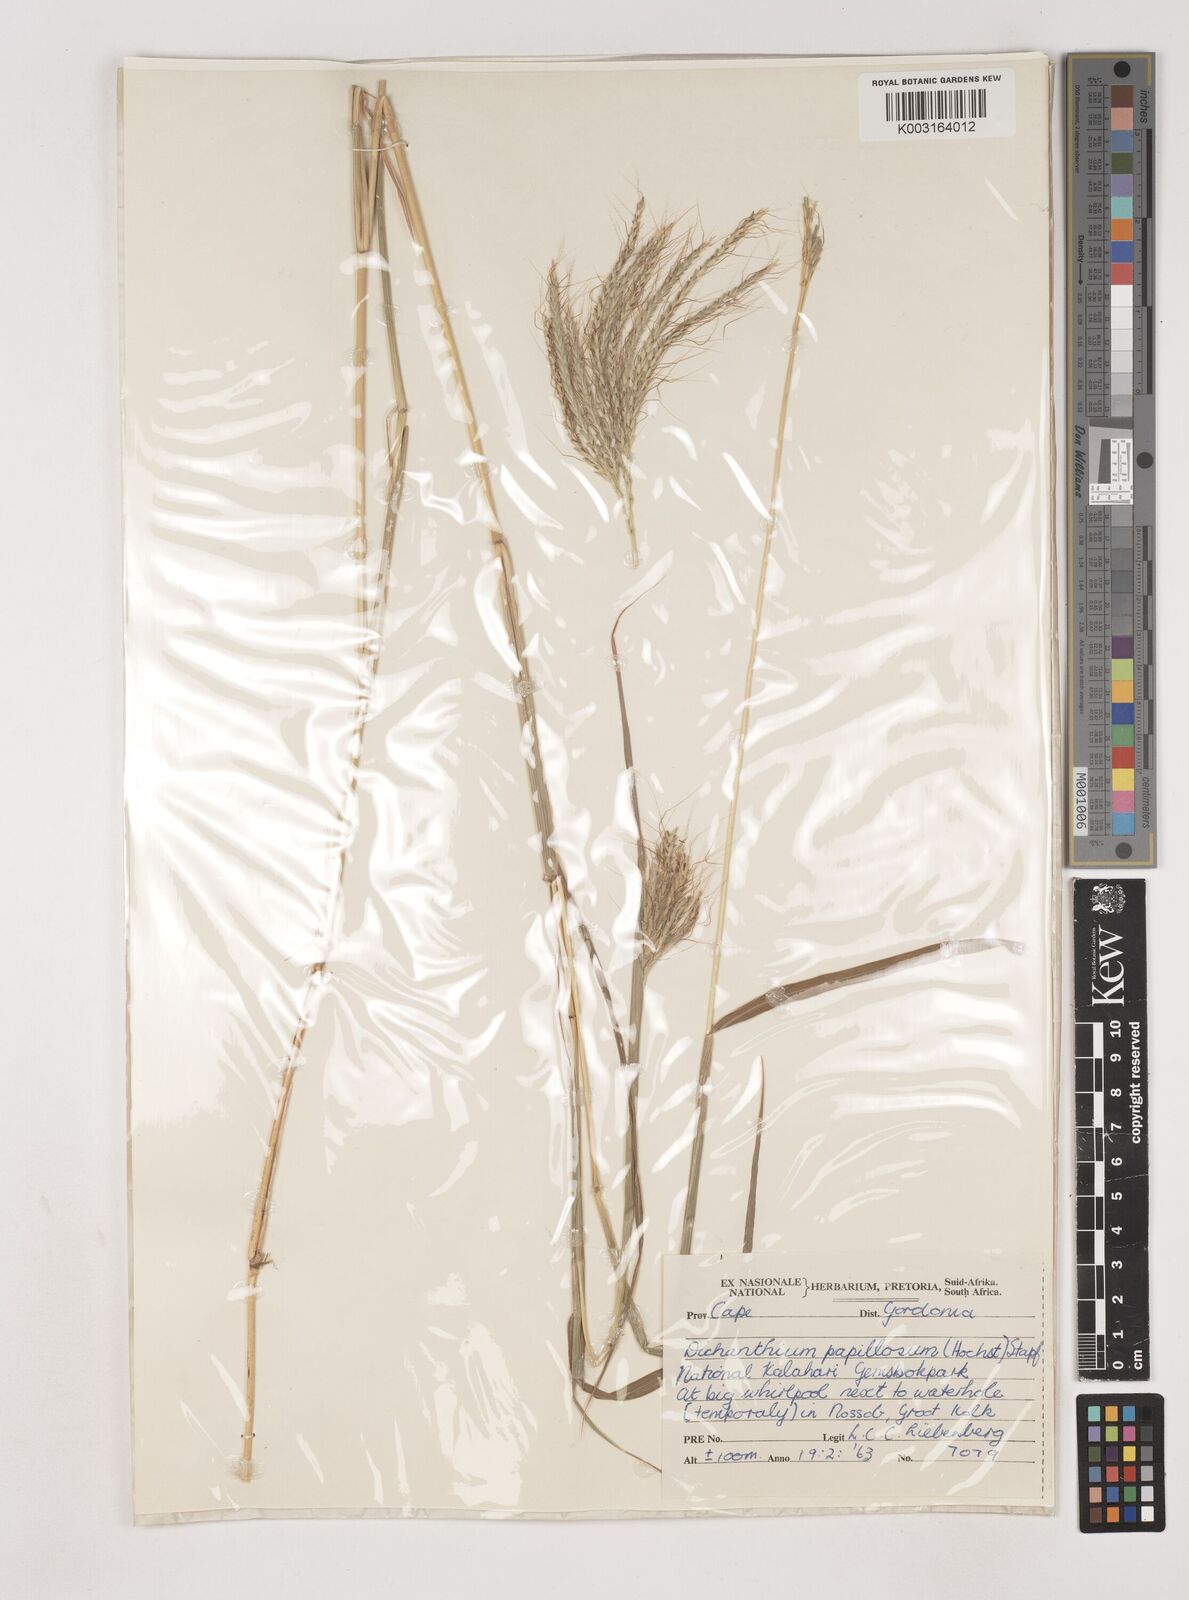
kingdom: Plantae
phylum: Tracheophyta
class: Liliopsida
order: Poales
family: Poaceae
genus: Dichanthium
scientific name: Dichanthium annulatum
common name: Kleberg's bluestem
